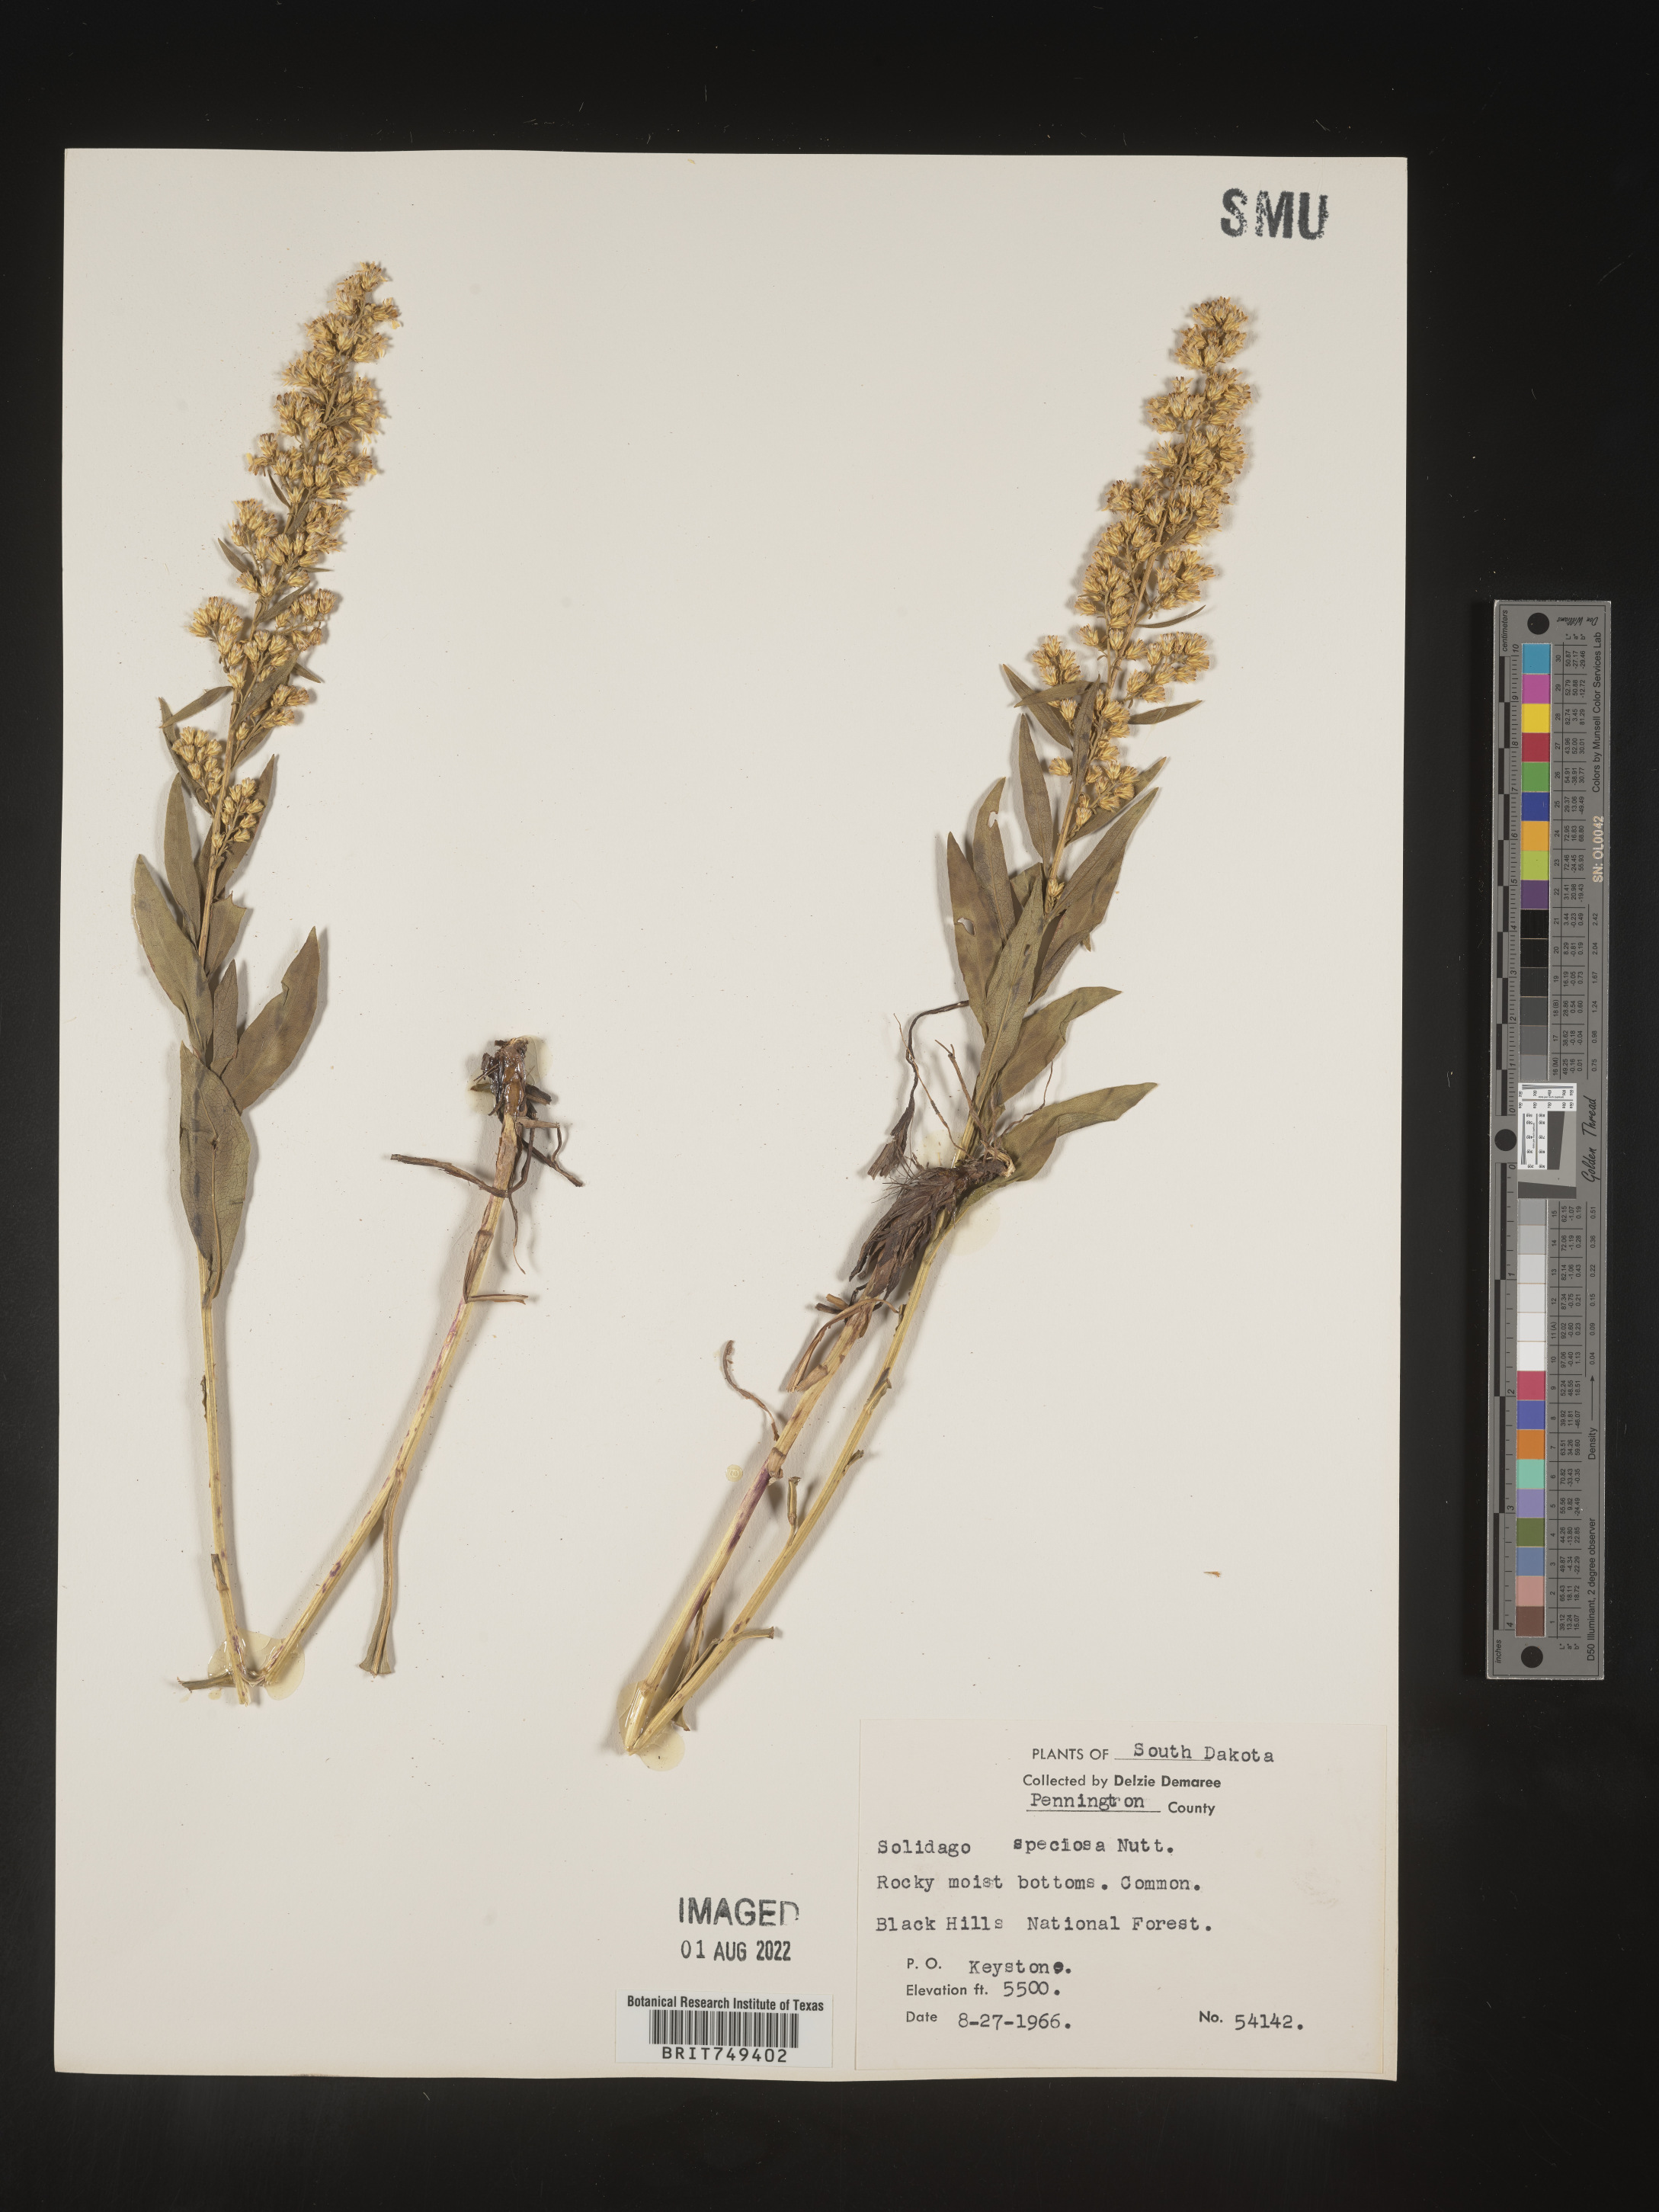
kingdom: Plantae
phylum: Tracheophyta
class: Magnoliopsida
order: Asterales
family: Asteraceae
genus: Solidago
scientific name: Solidago speciosa
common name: Showy goldenrod
